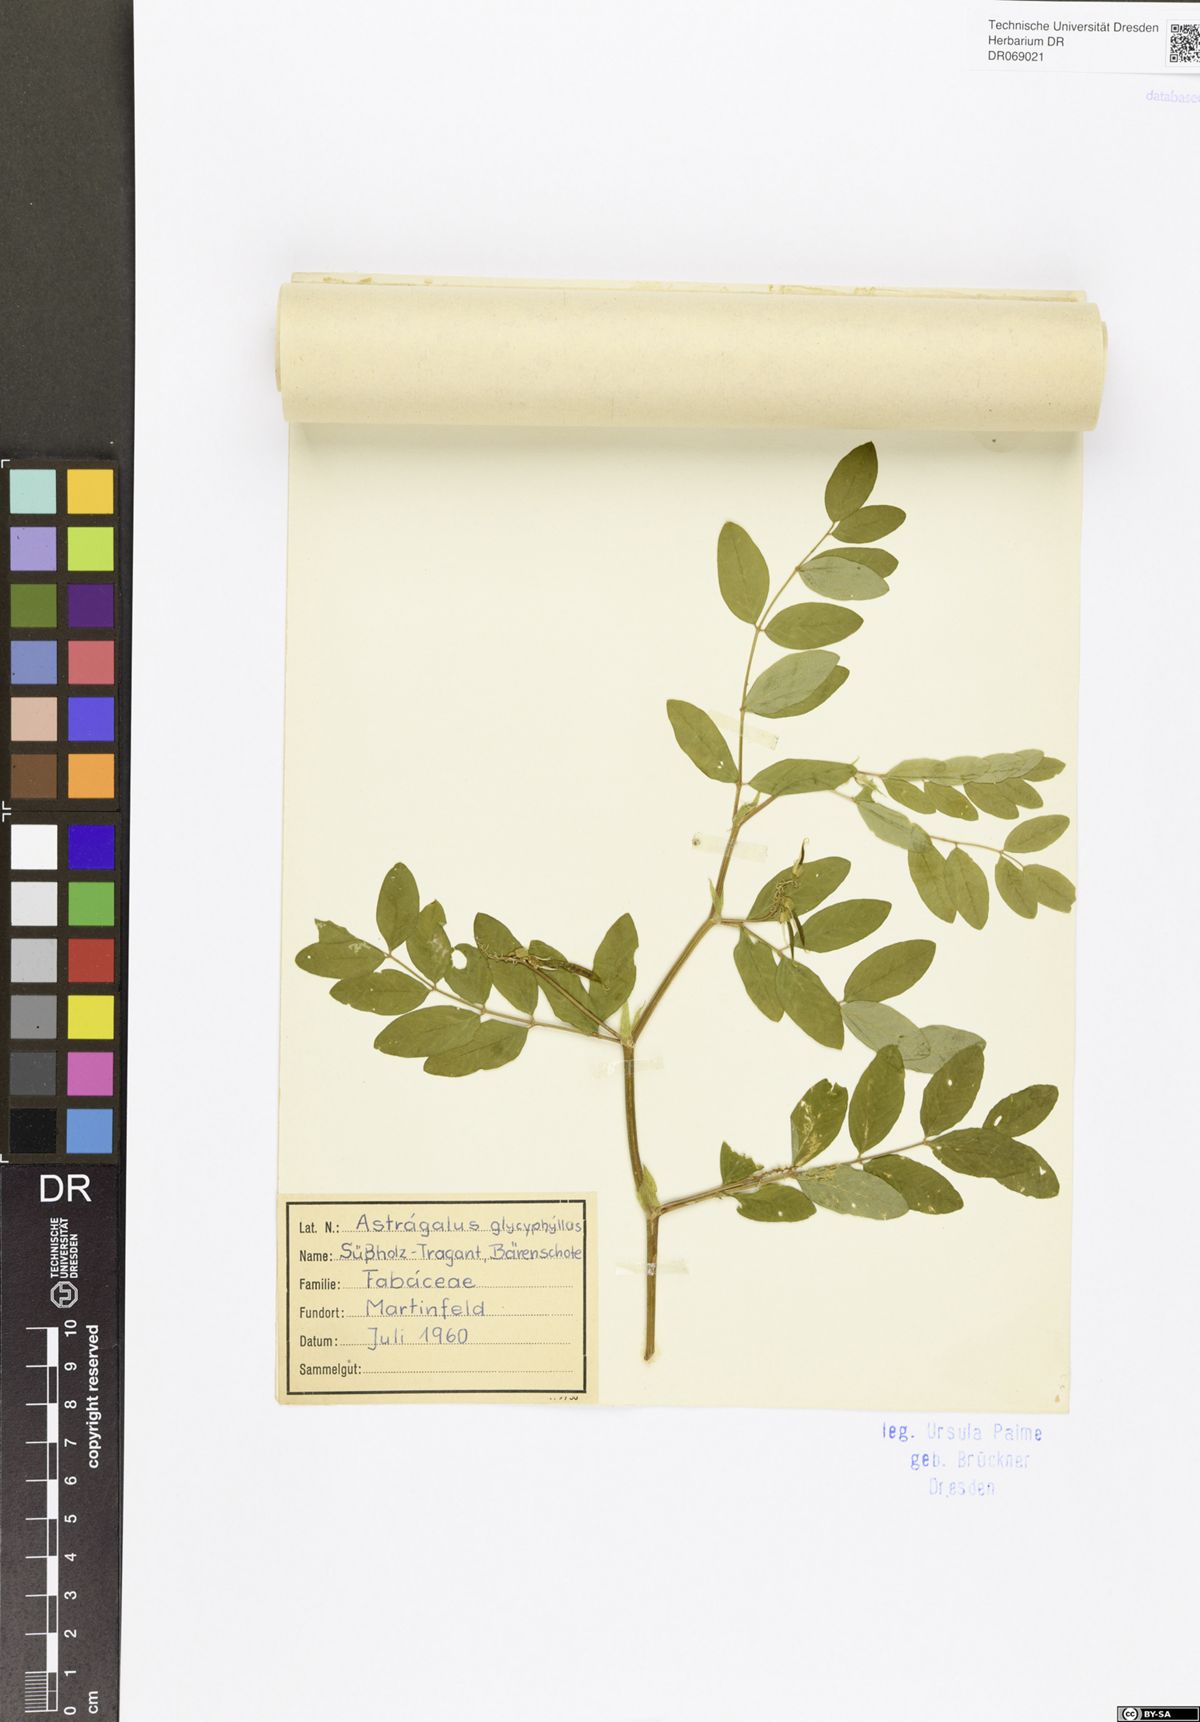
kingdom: Plantae
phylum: Tracheophyta
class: Magnoliopsida
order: Fabales
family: Fabaceae
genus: Astragalus
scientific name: Astragalus glycyphyllos
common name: Wild liquorice
